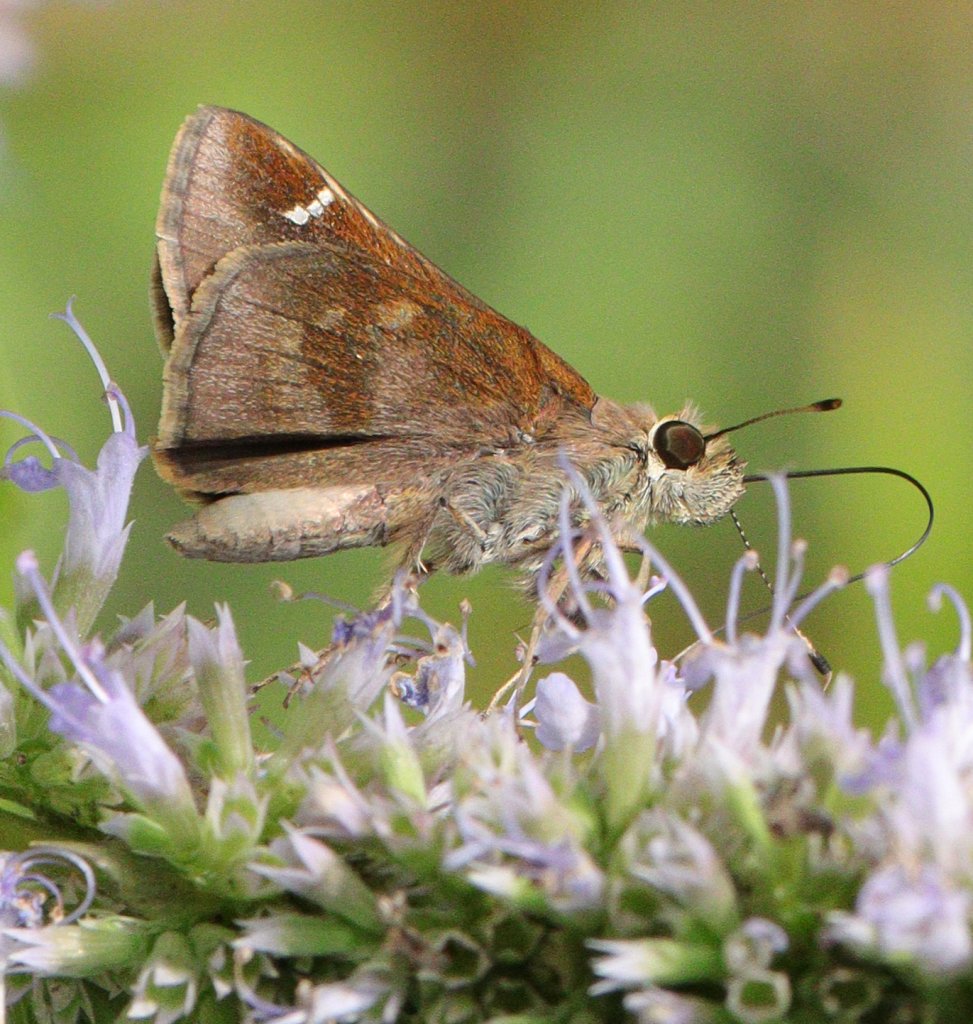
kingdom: Animalia
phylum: Arthropoda
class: Insecta
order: Lepidoptera
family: Hesperiidae
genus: Lerema
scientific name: Lerema accius
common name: Clouded Skipper
